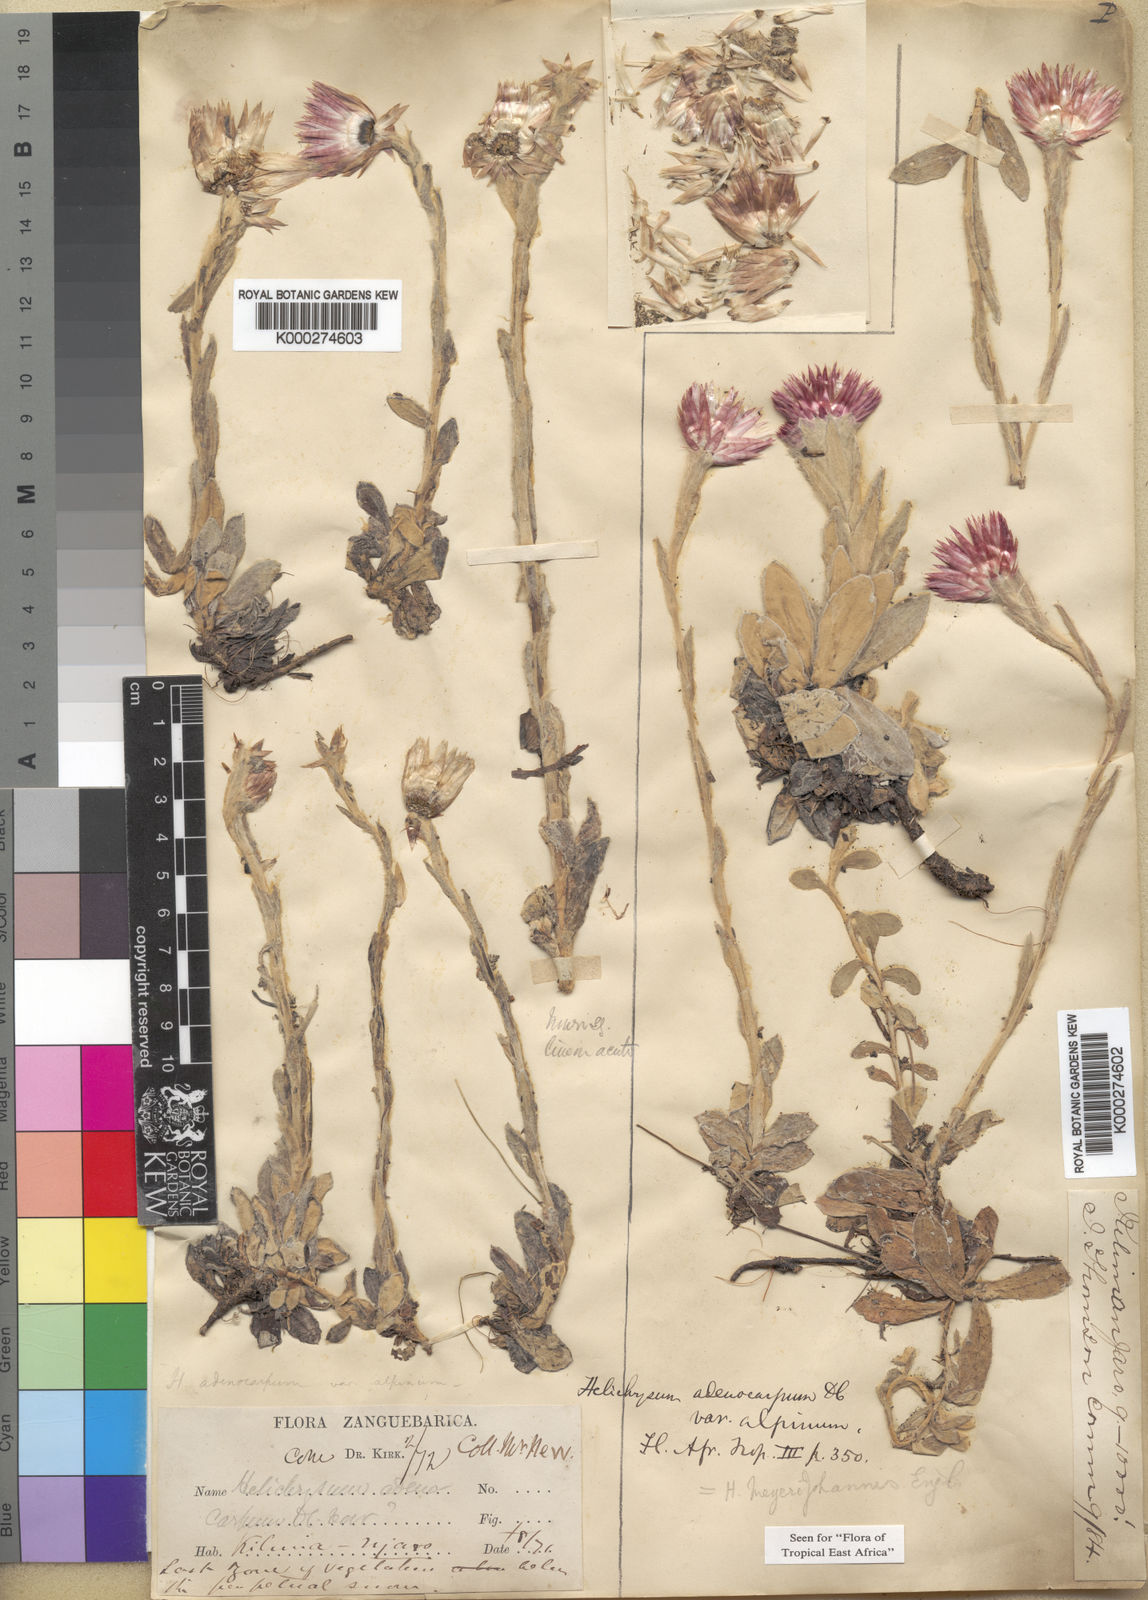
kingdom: Plantae
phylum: Tracheophyta
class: Magnoliopsida
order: Asterales
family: Asteraceae
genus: Helichrysum
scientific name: Helichrysum meyeri-johannis
